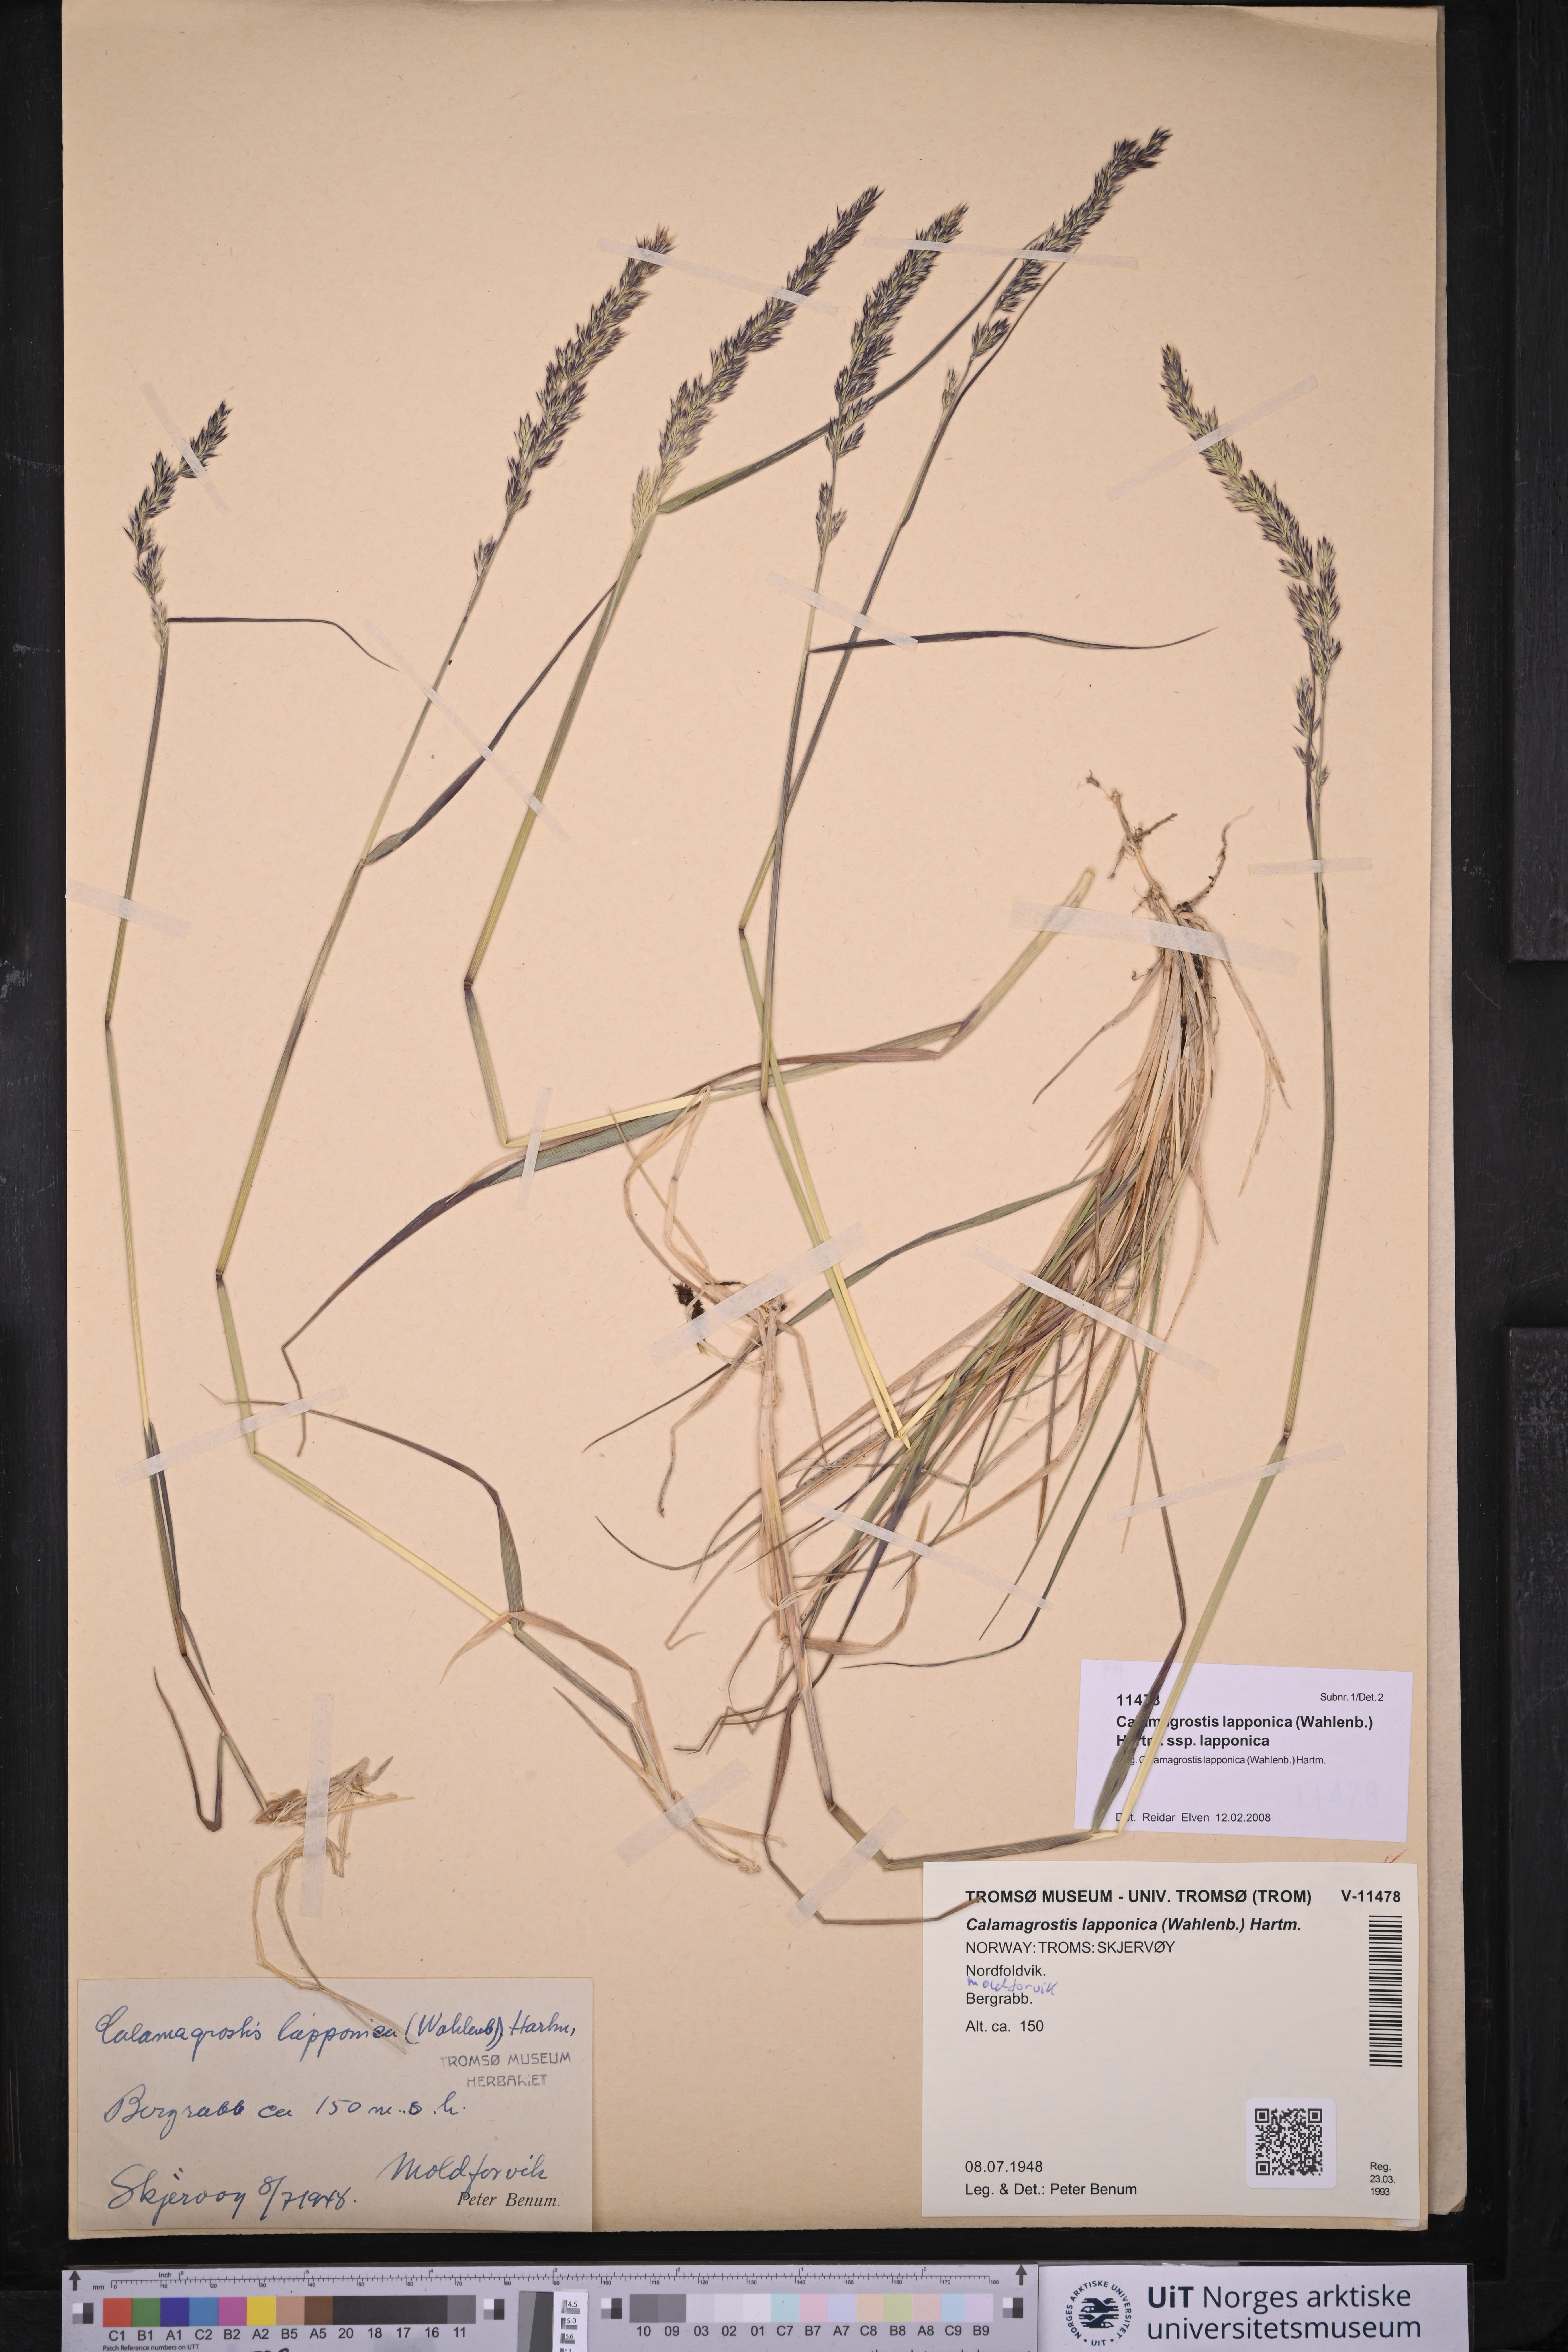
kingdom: Plantae
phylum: Tracheophyta
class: Liliopsida
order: Poales
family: Poaceae
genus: Calamagrostis
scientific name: Calamagrostis lapponica
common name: Lapland reedgrass
